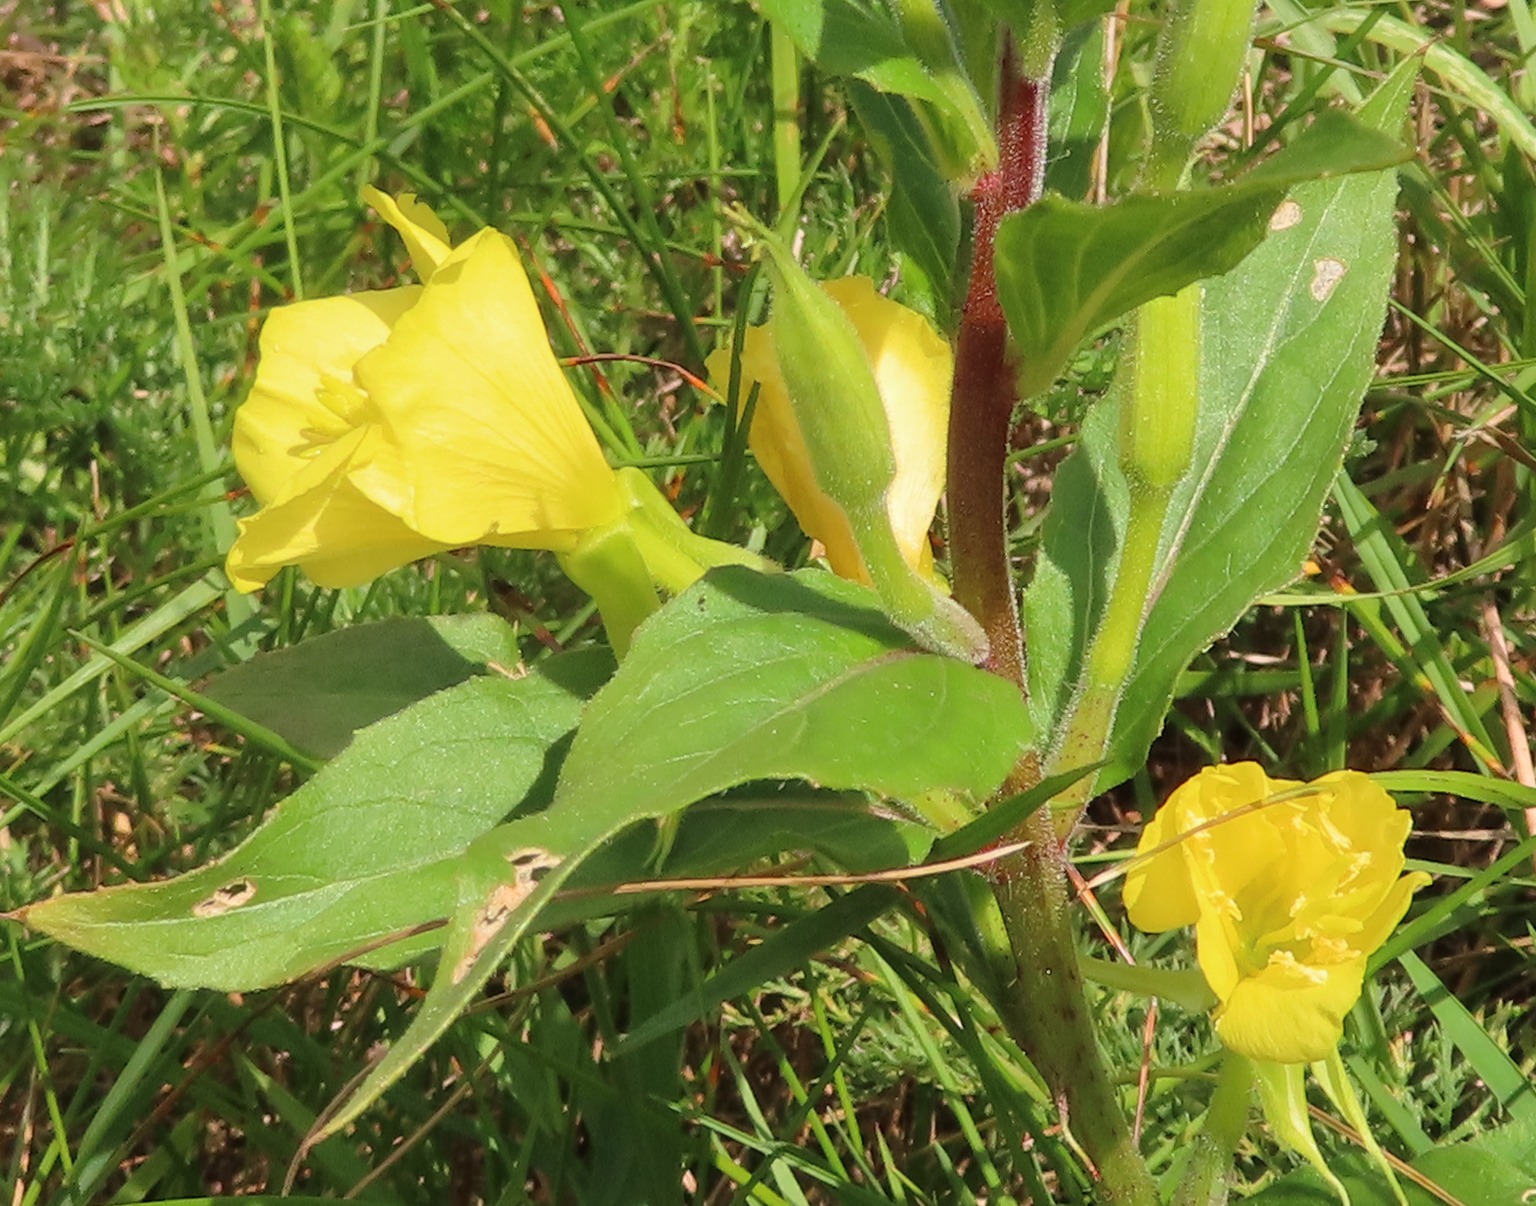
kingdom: Plantae
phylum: Tracheophyta
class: Magnoliopsida
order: Myrtales
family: Onagraceae
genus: Oenothera
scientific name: Oenothera biennis
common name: Rødfrugtet natlys
